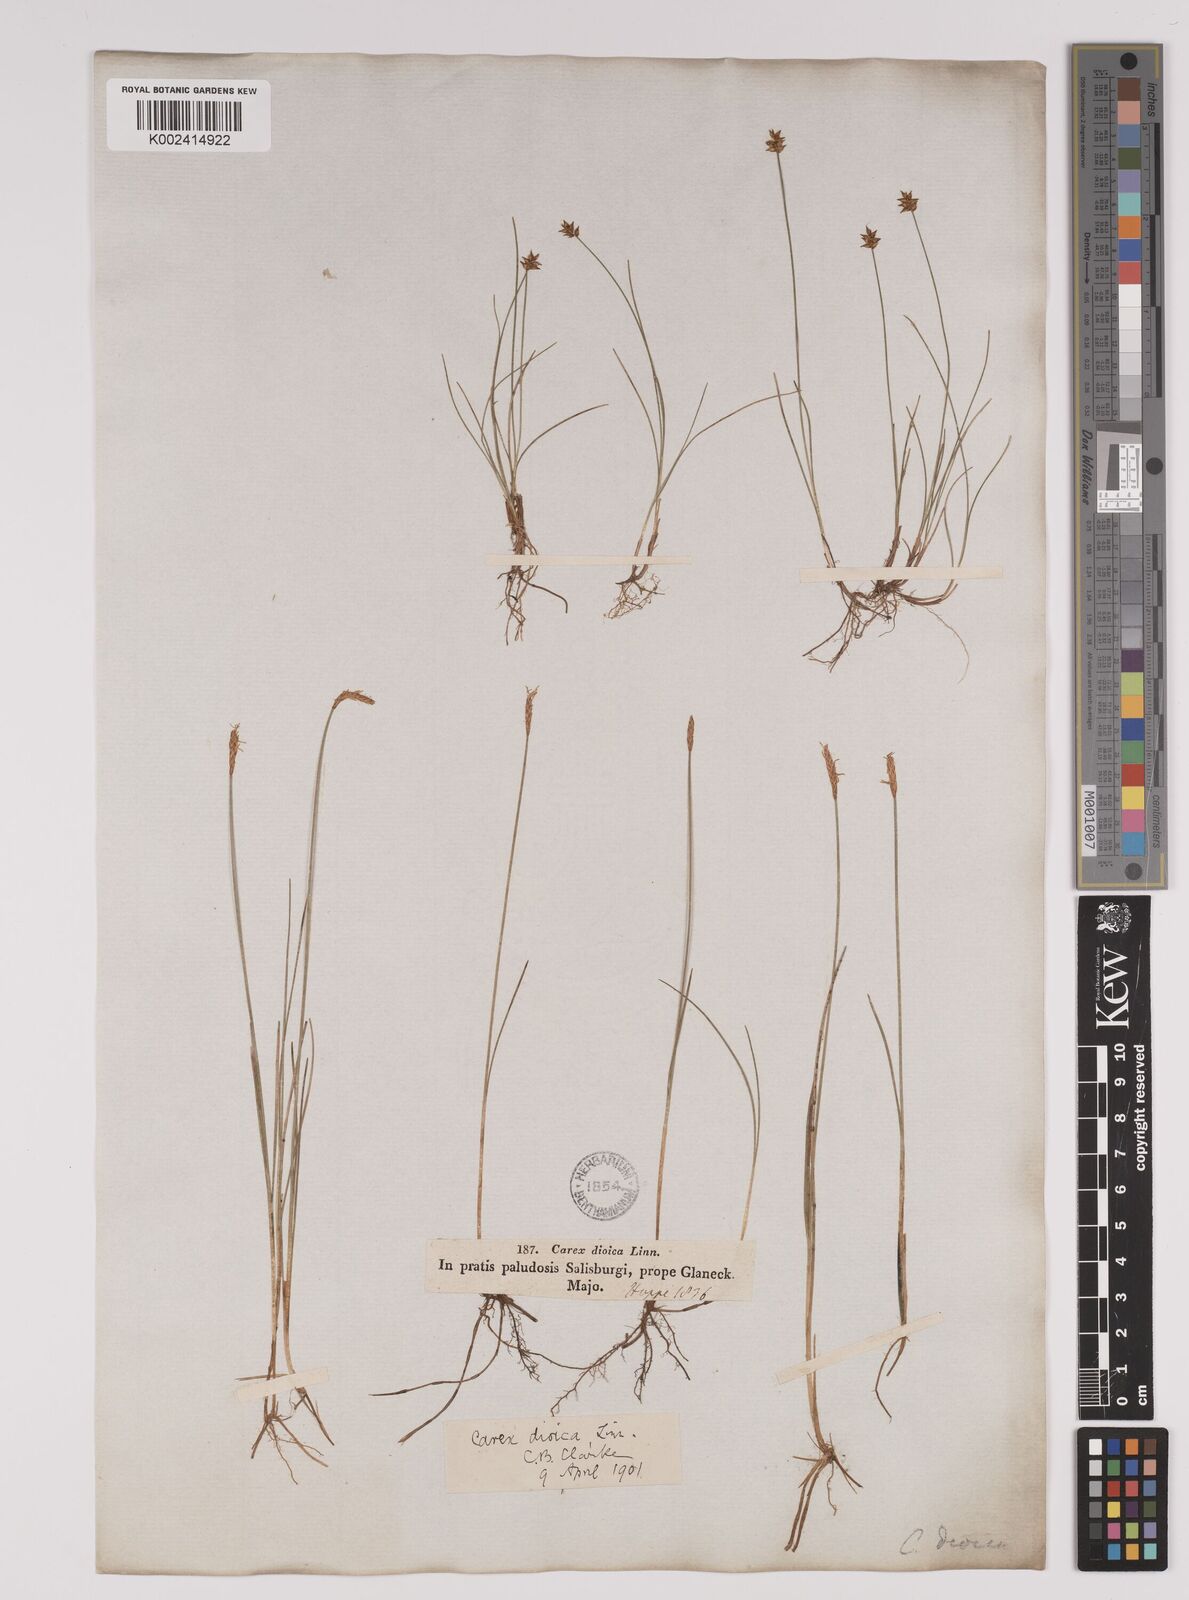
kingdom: Plantae
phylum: Tracheophyta
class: Liliopsida
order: Poales
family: Cyperaceae
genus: Carex
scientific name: Carex dioica
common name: Dioecious sedge
